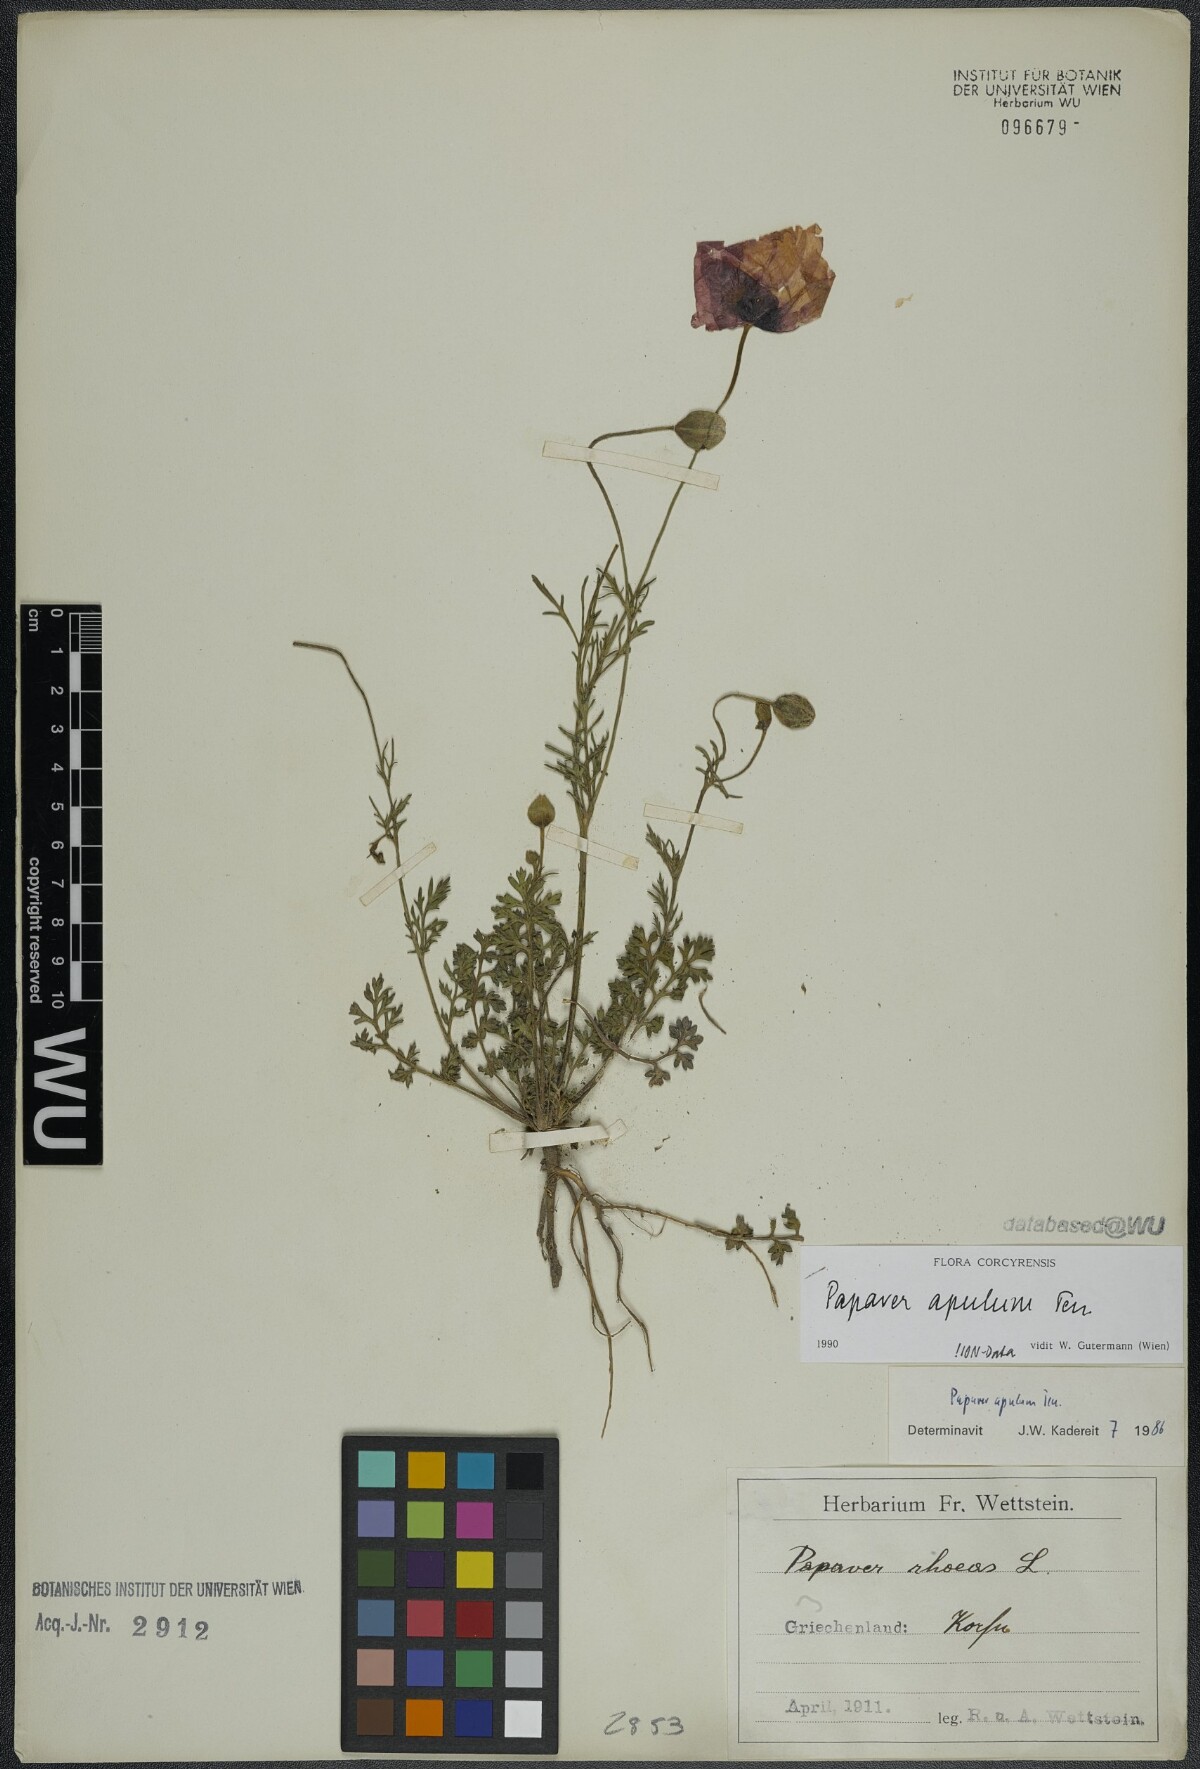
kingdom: Plantae
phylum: Tracheophyta
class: Magnoliopsida
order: Ranunculales
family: Papaveraceae
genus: Roemeria
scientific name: Roemeria apula
